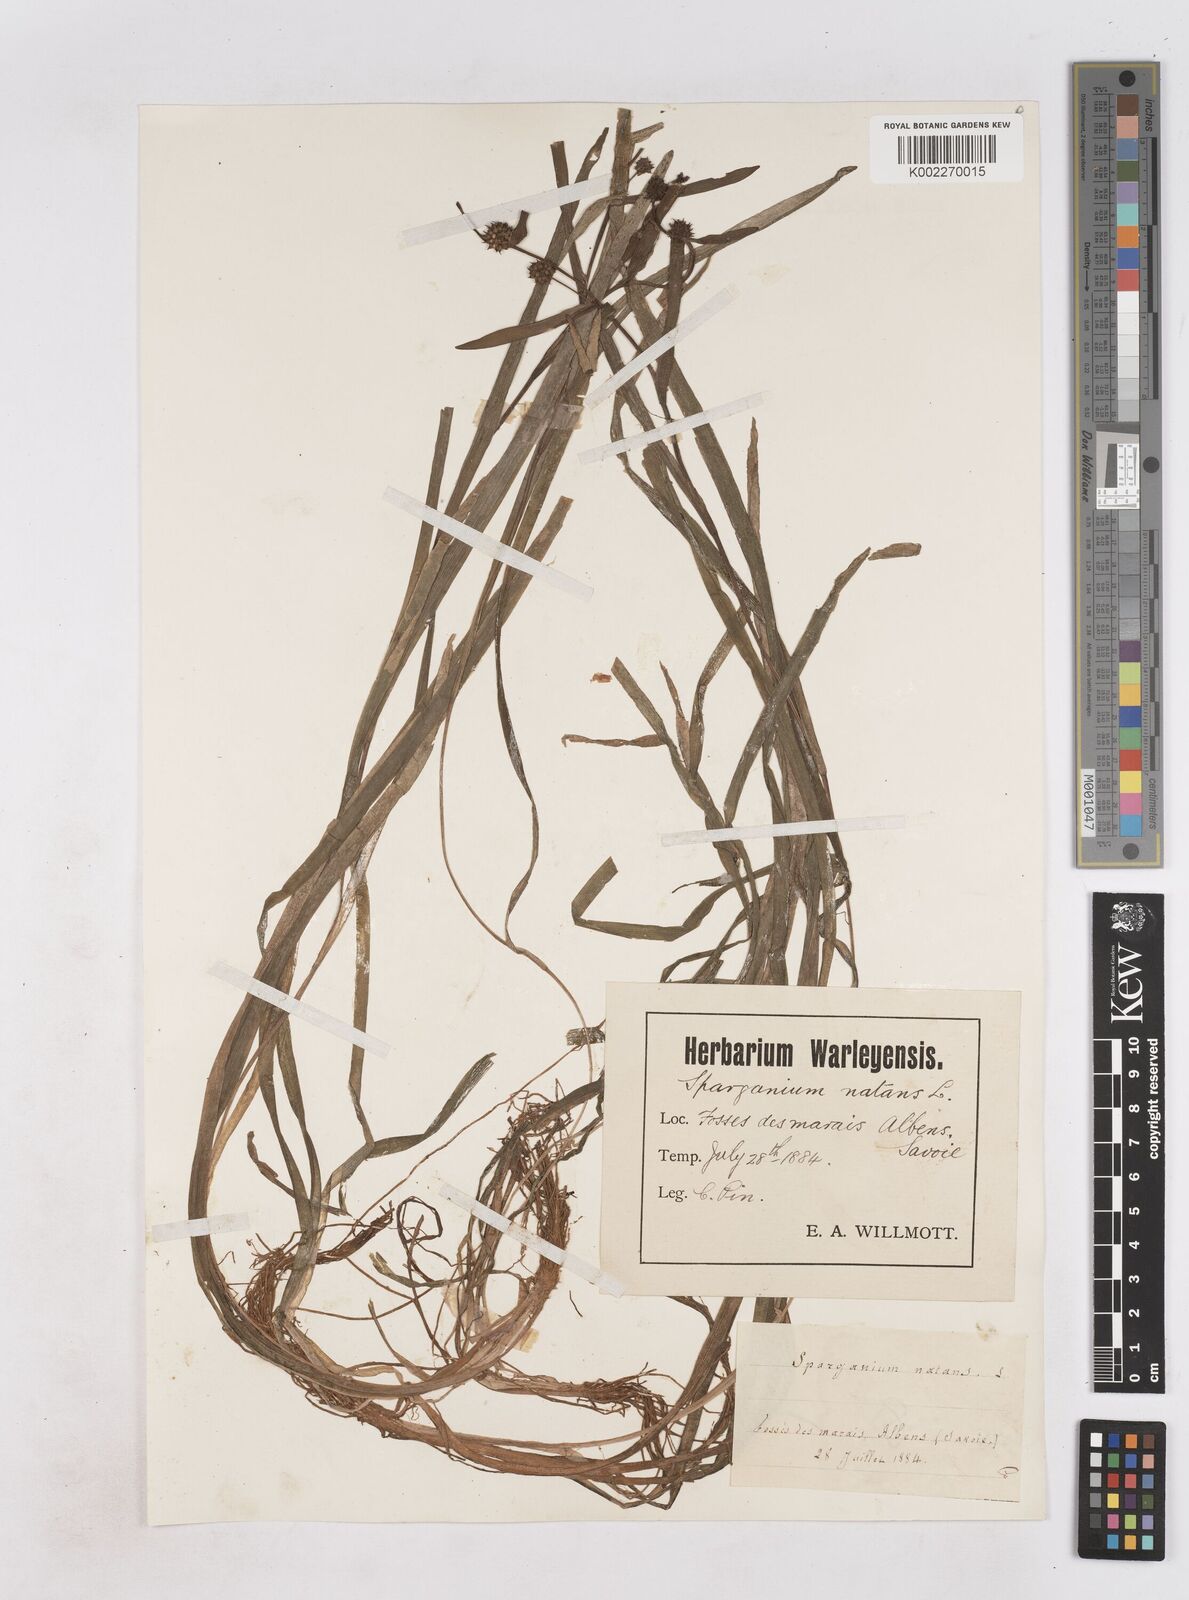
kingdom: Plantae
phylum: Tracheophyta
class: Liliopsida
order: Poales
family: Typhaceae
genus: Sparganium
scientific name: Sparganium gramineum
